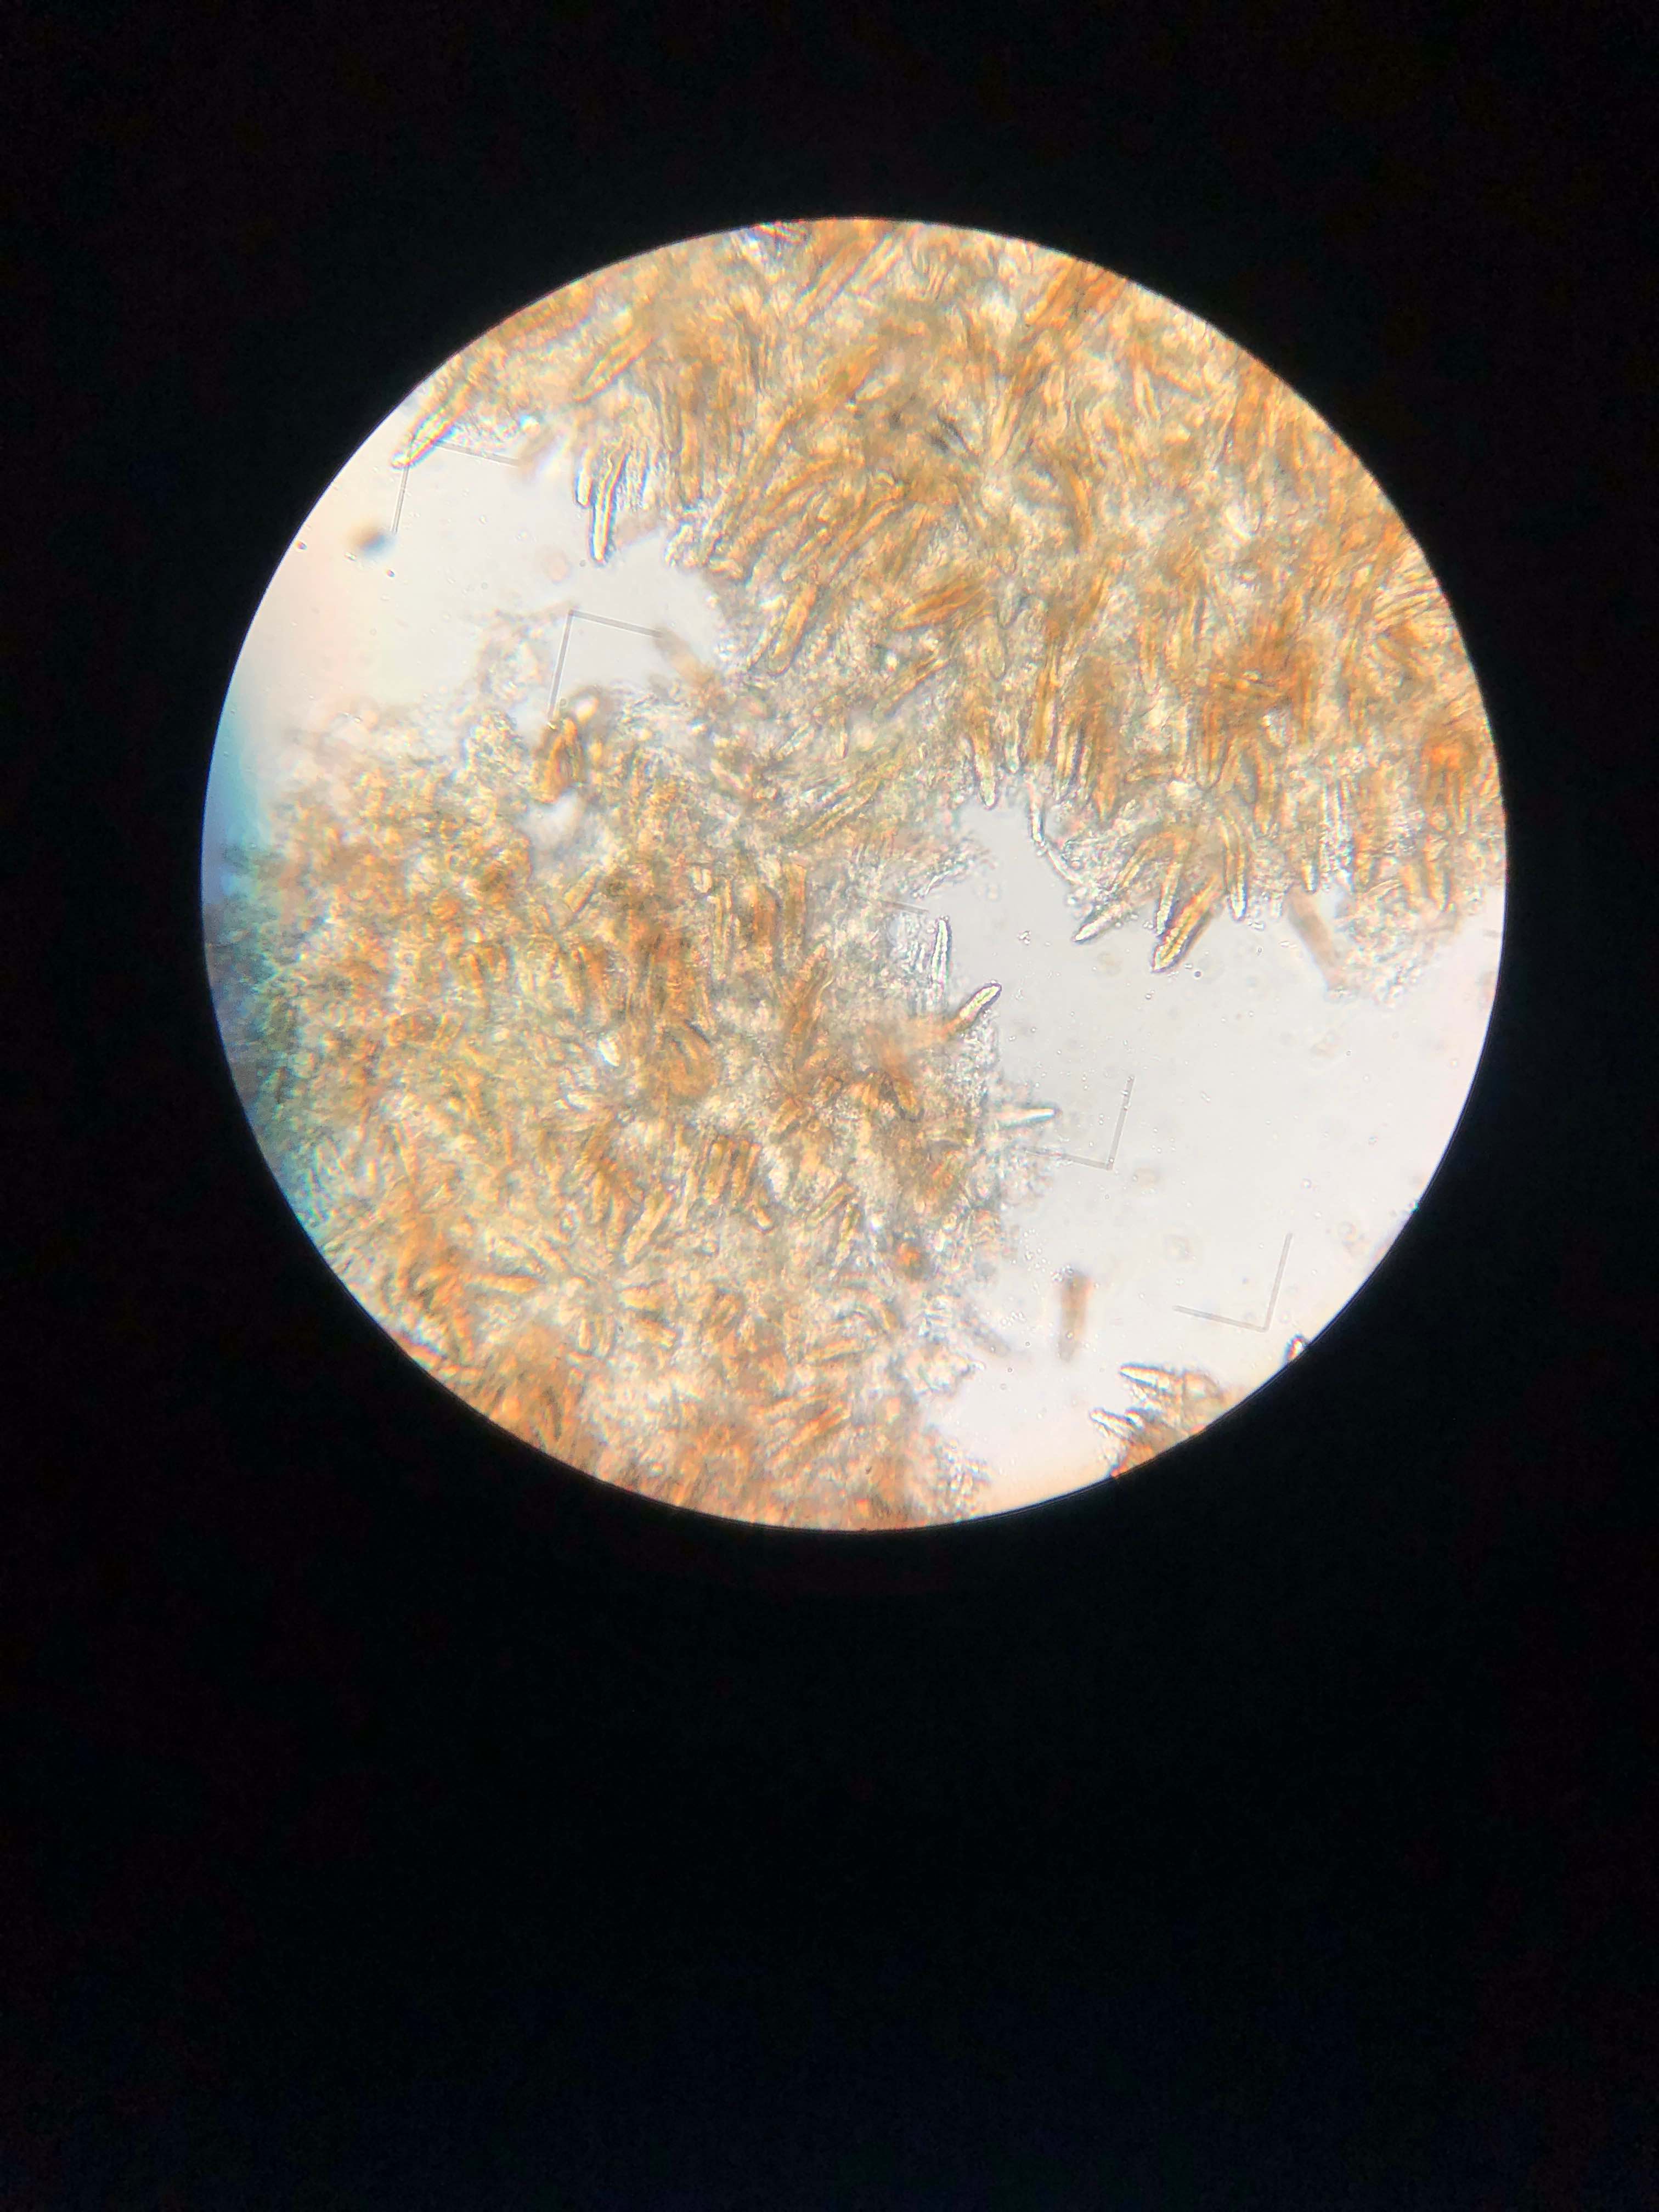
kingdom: Fungi
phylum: Basidiomycota
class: Agaricomycetes
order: Russulales
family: Echinodontiaceae
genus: Amylostereum
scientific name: Amylostereum laevigatum
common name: ene-lædersvamp
